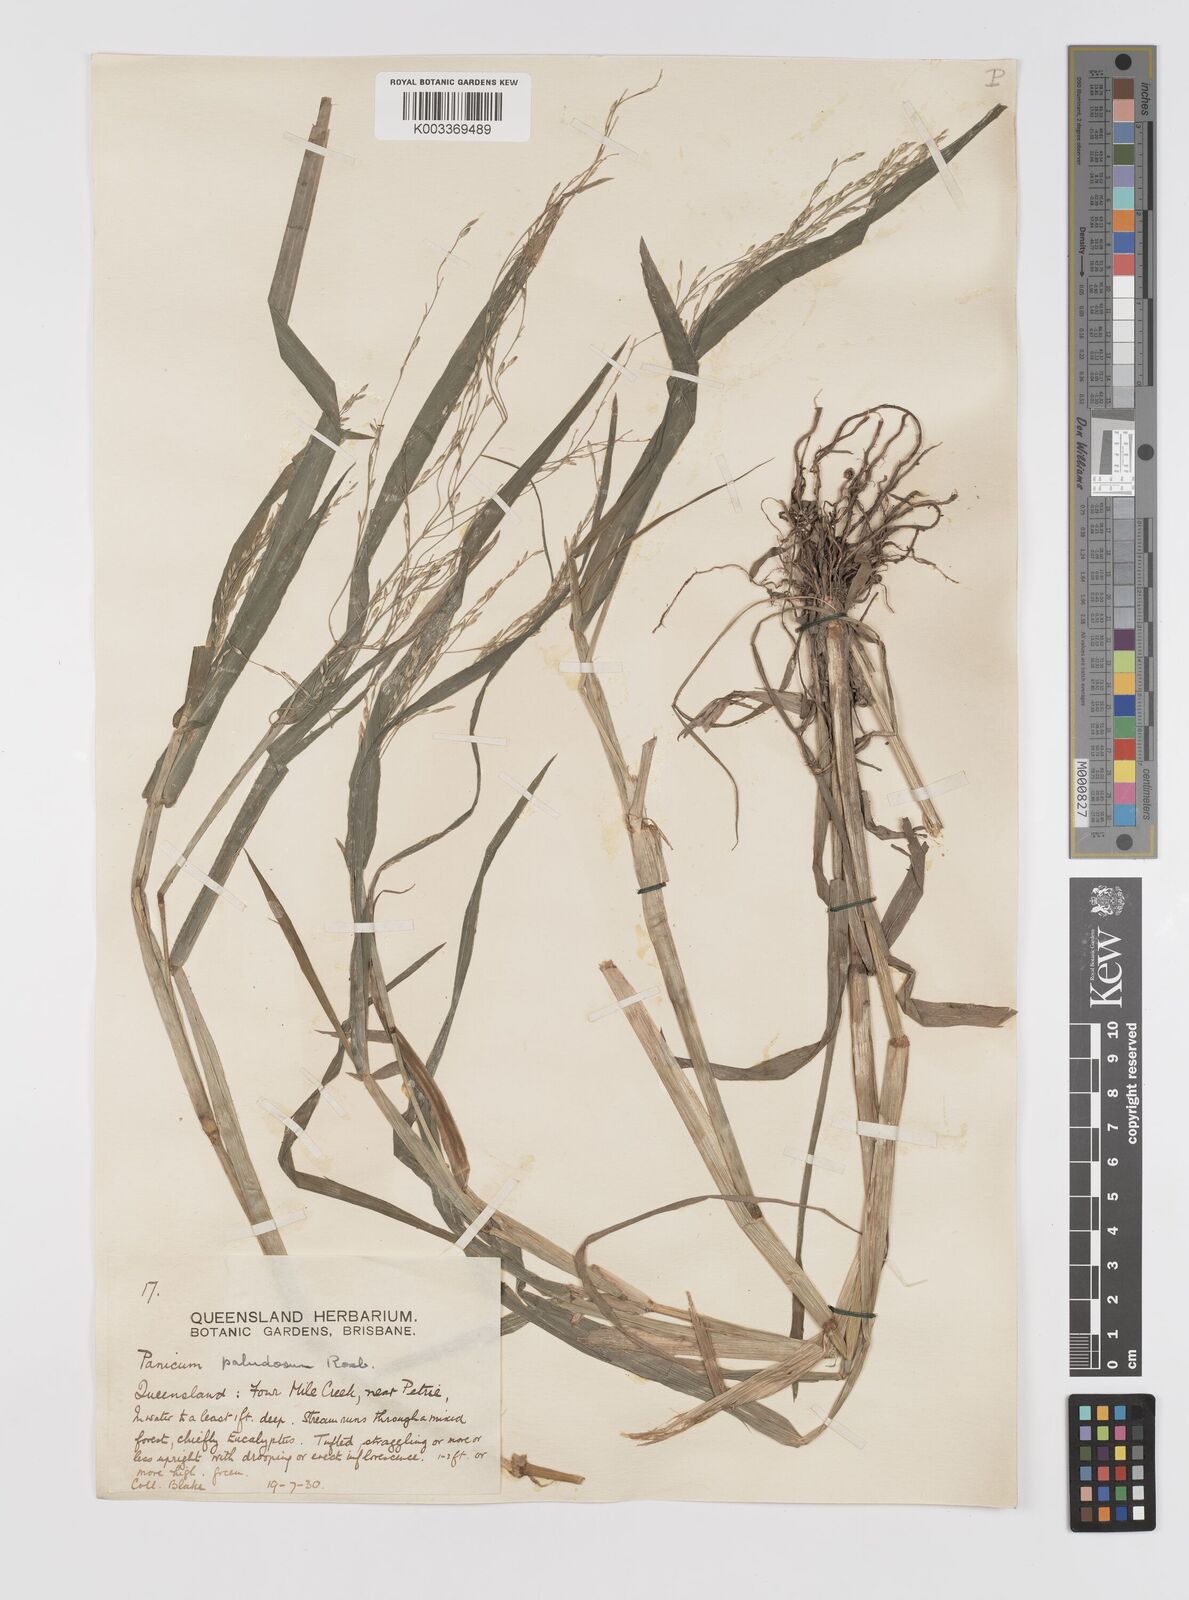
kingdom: Plantae
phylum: Tracheophyta
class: Liliopsida
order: Poales
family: Poaceae
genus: Louisiella
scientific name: Louisiella paludosa
